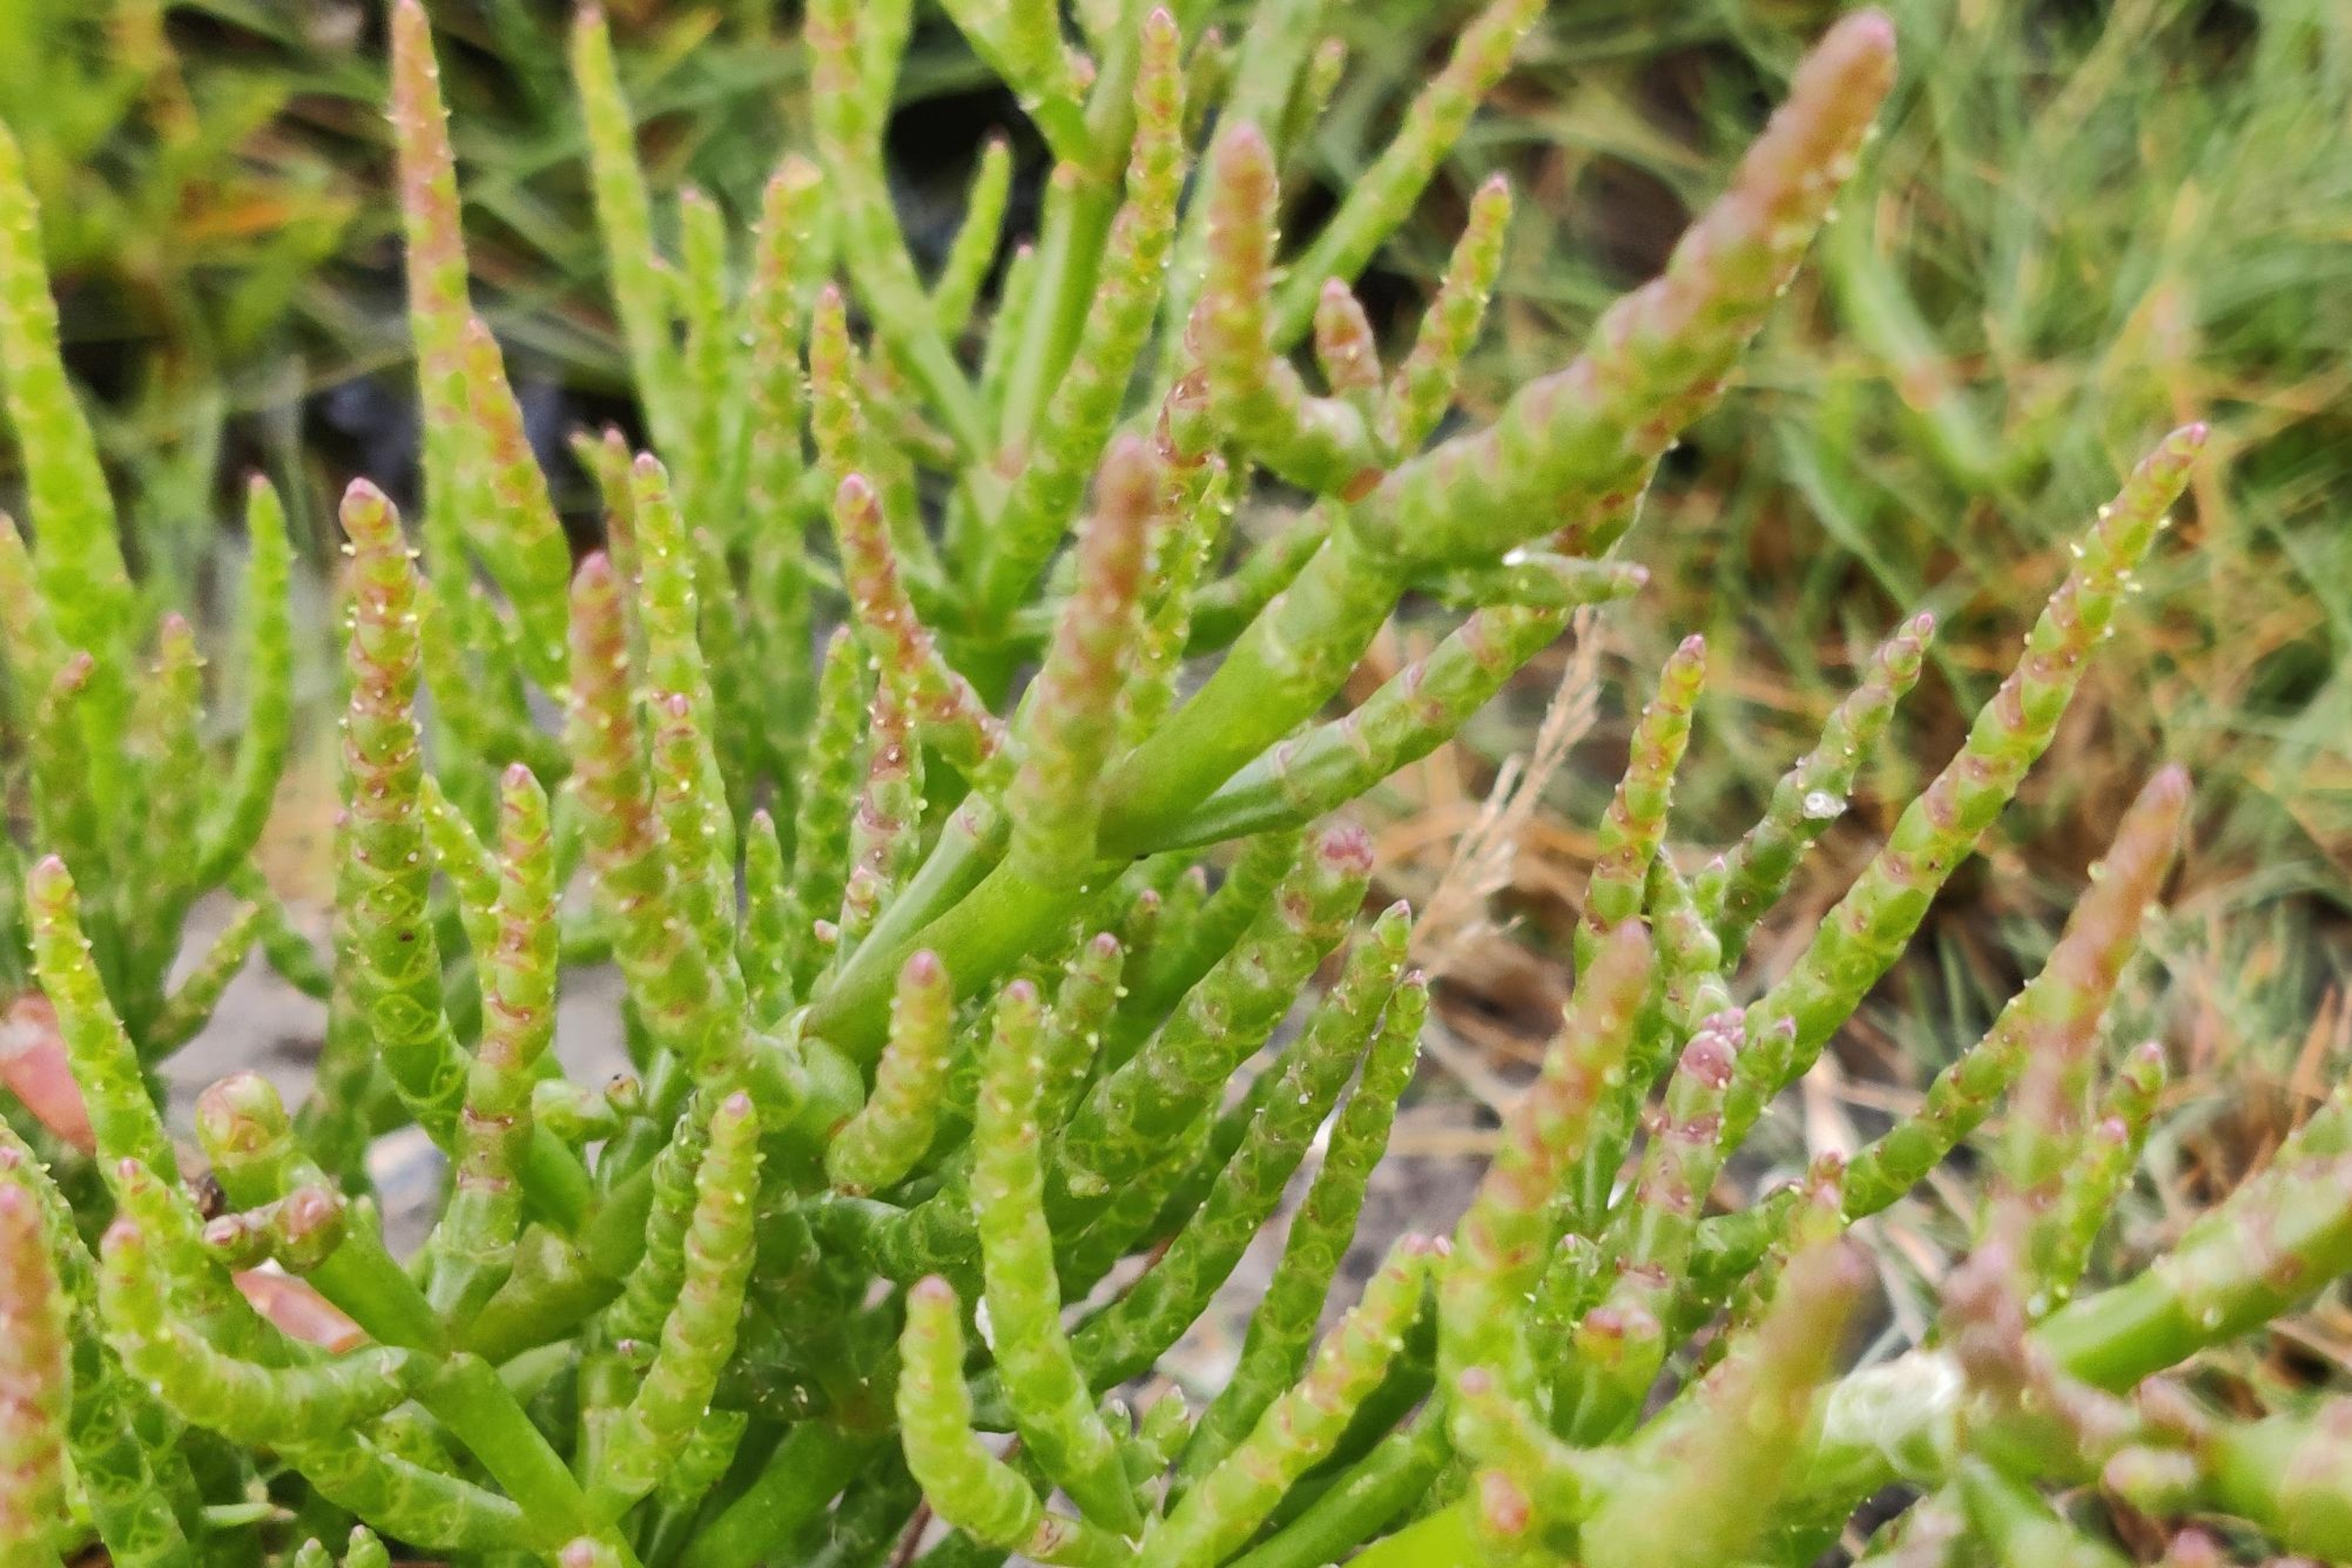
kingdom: Plantae
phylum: Tracheophyta
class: Magnoliopsida
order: Caryophyllales
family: Amaranthaceae
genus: Salicornia
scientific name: Salicornia europaea
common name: Almindelig salturt
